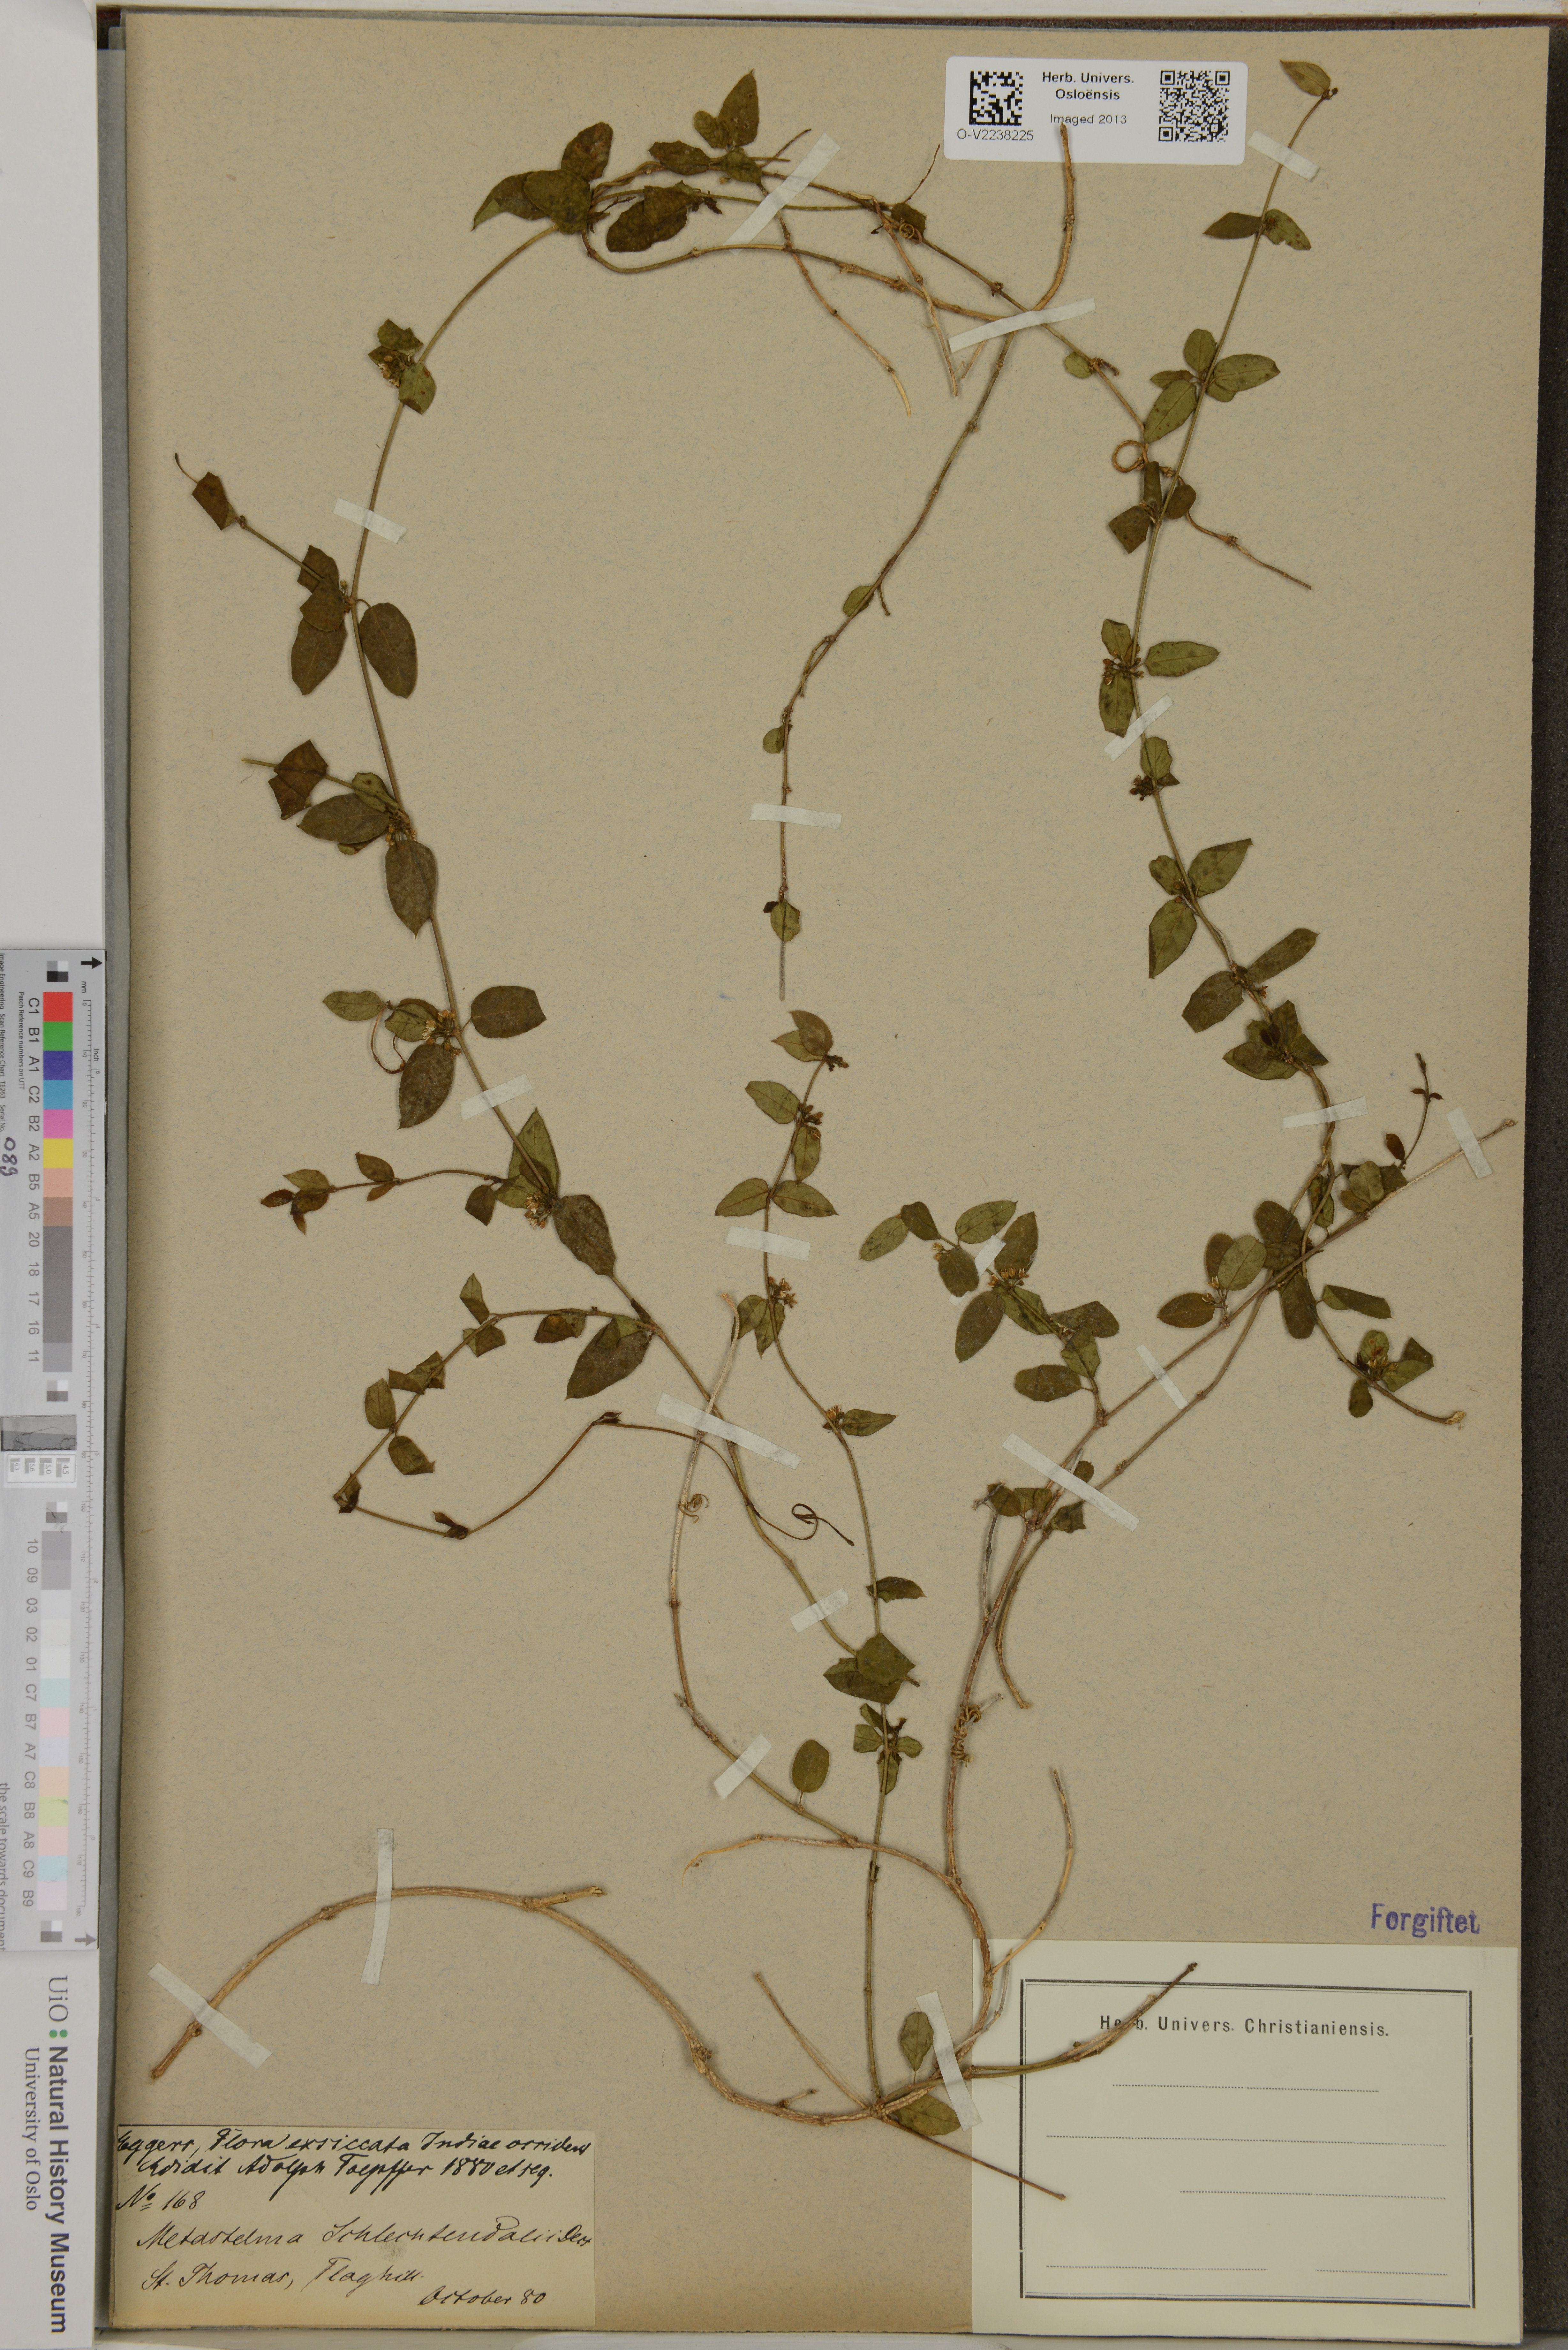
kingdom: Plantae
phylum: Tracheophyta
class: Magnoliopsida
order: Gentianales
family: Apocynaceae
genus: Metastelma
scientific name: Metastelma schlechtendalii
